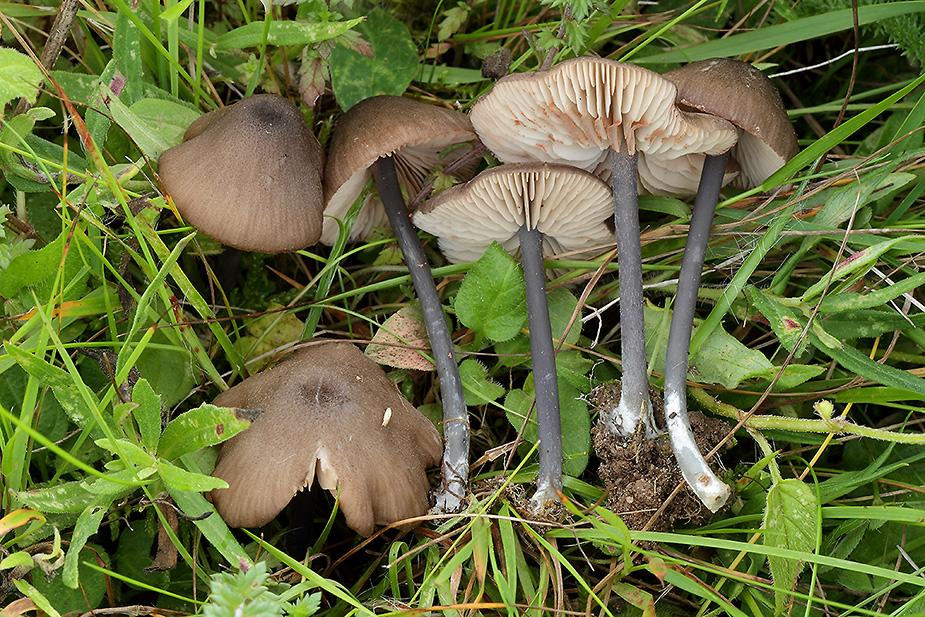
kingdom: Fungi
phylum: Basidiomycota
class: Agaricomycetes
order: Agaricales
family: Entolomataceae
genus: Entoloma
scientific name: Entoloma atrocoeruleum
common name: sortblå rødblad
